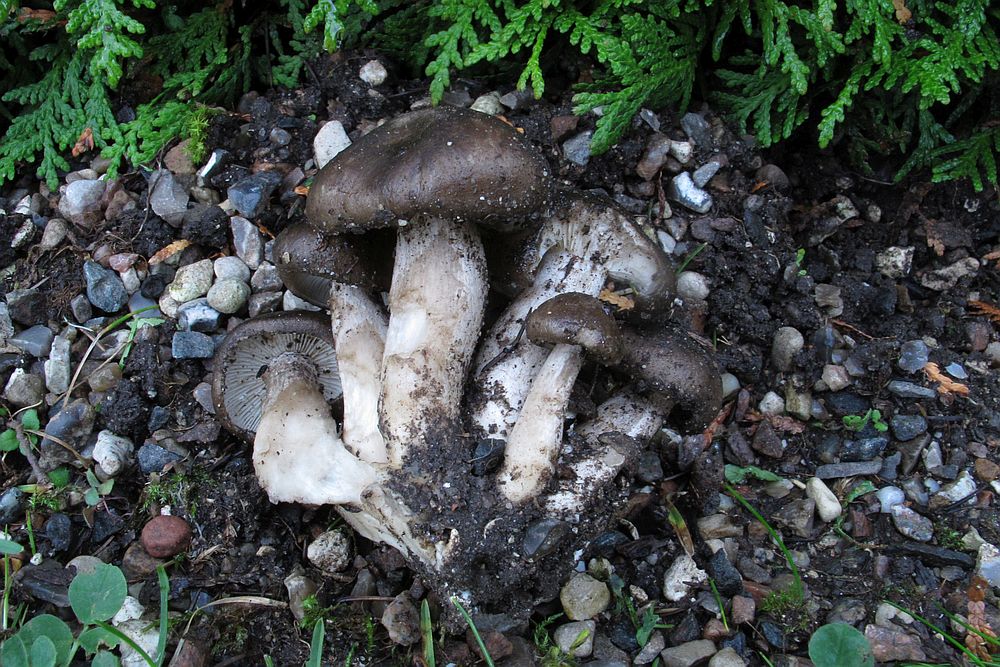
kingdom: Fungi
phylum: Basidiomycota
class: Agaricomycetes
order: Agaricales
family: Lyophyllaceae
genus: Lyophyllum
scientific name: Lyophyllum decastes
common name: røggrå gråblad
